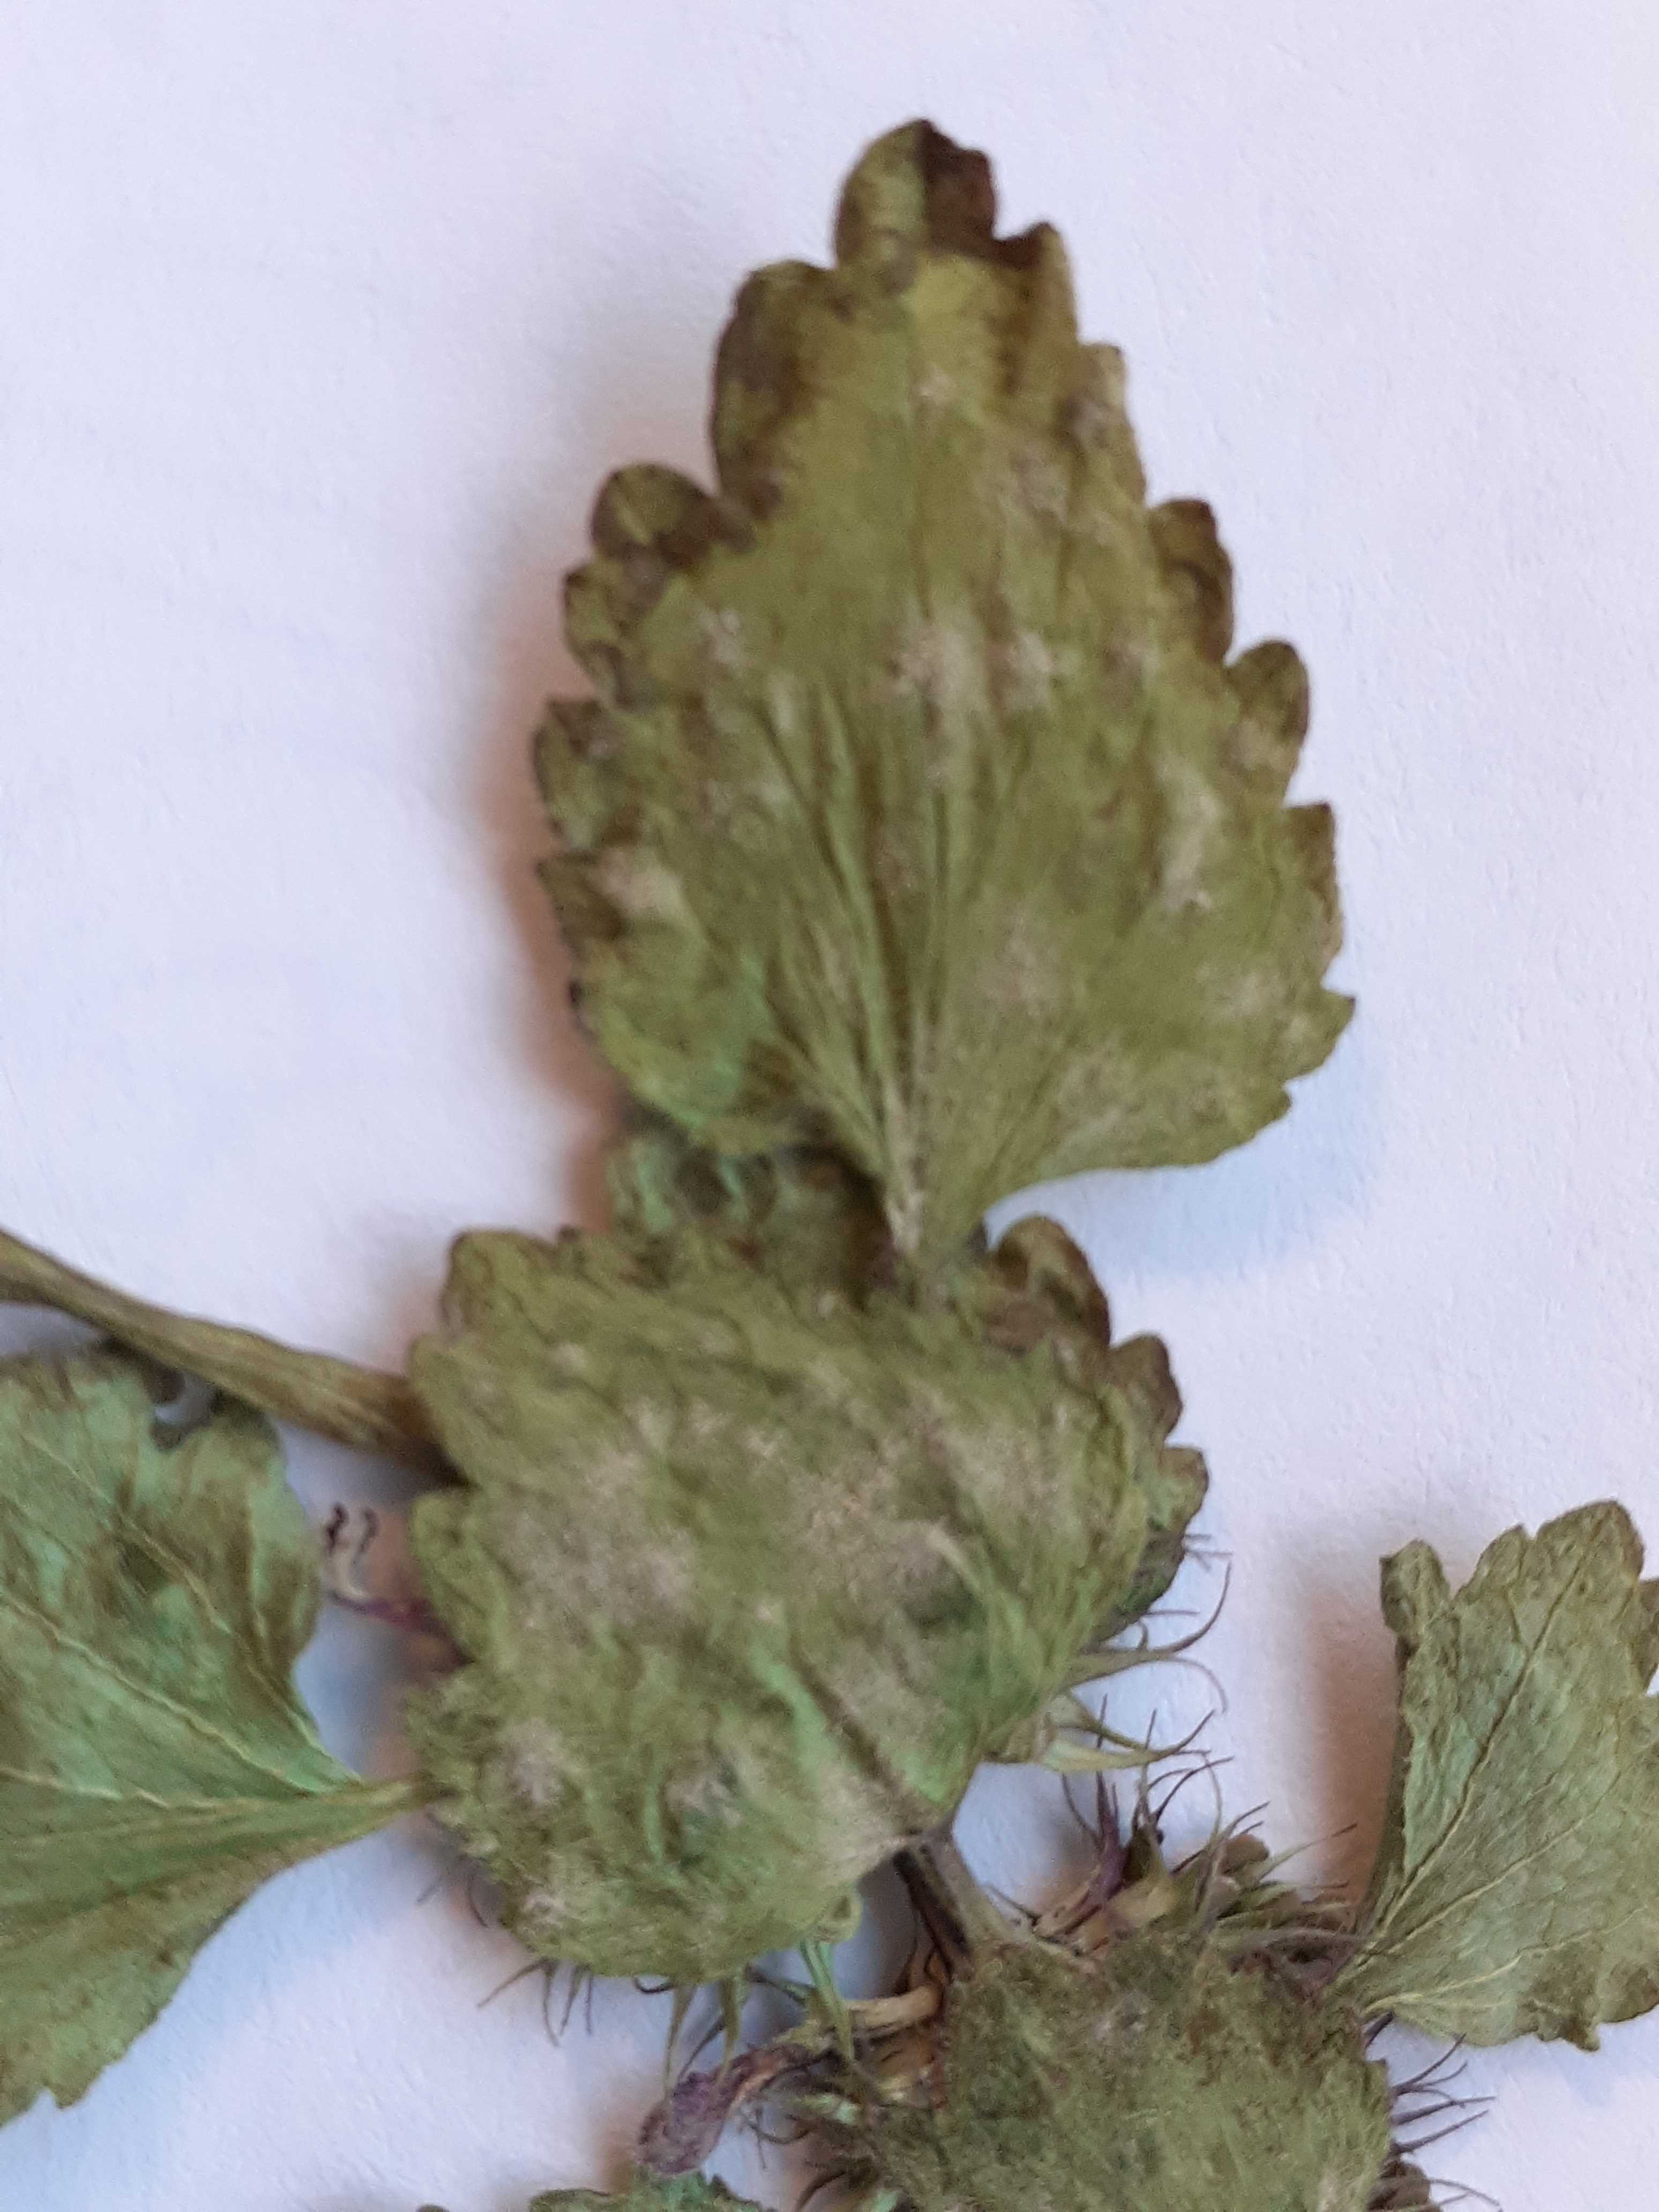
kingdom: Fungi
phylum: Ascomycota
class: Leotiomycetes
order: Helotiales
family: Erysiphaceae
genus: Neoerysiphe
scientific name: Neoerysiphe galeopsidis
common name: Mint mildew
